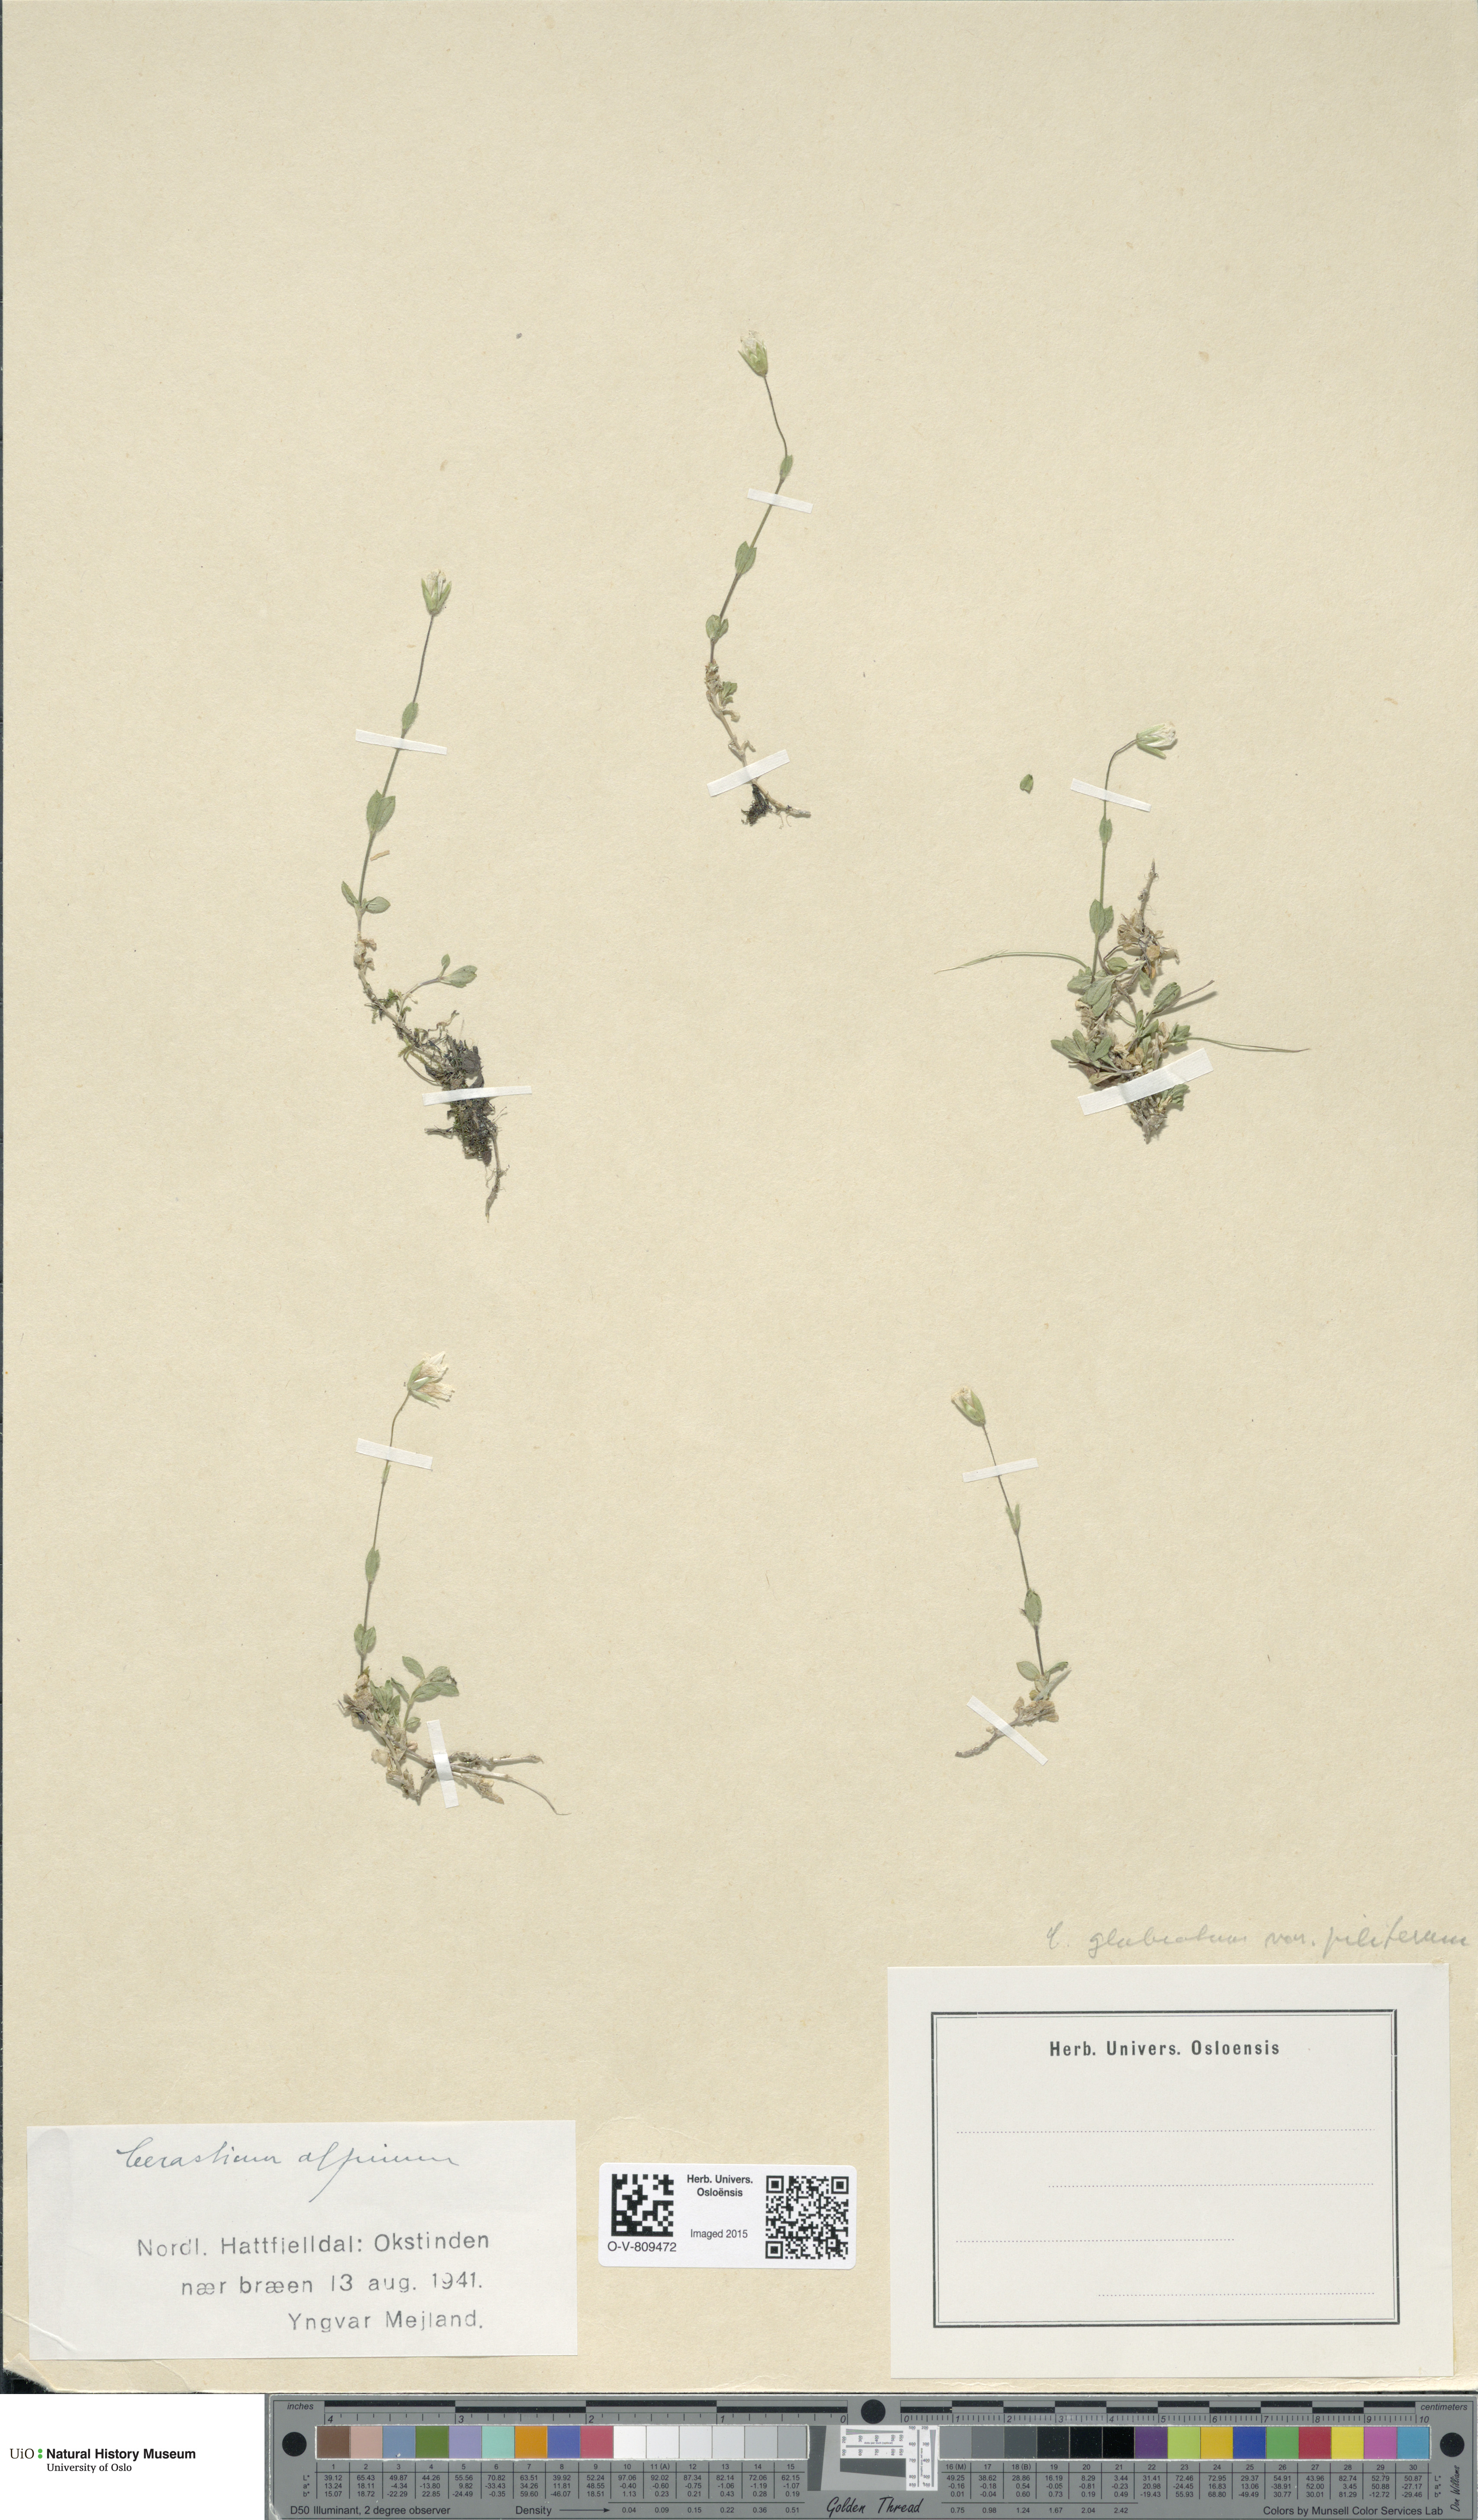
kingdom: Plantae
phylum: Tracheophyta
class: Magnoliopsida
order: Caryophyllales
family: Caryophyllaceae
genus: Cerastium
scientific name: Cerastium alpinum
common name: Alpine mouse-ear
